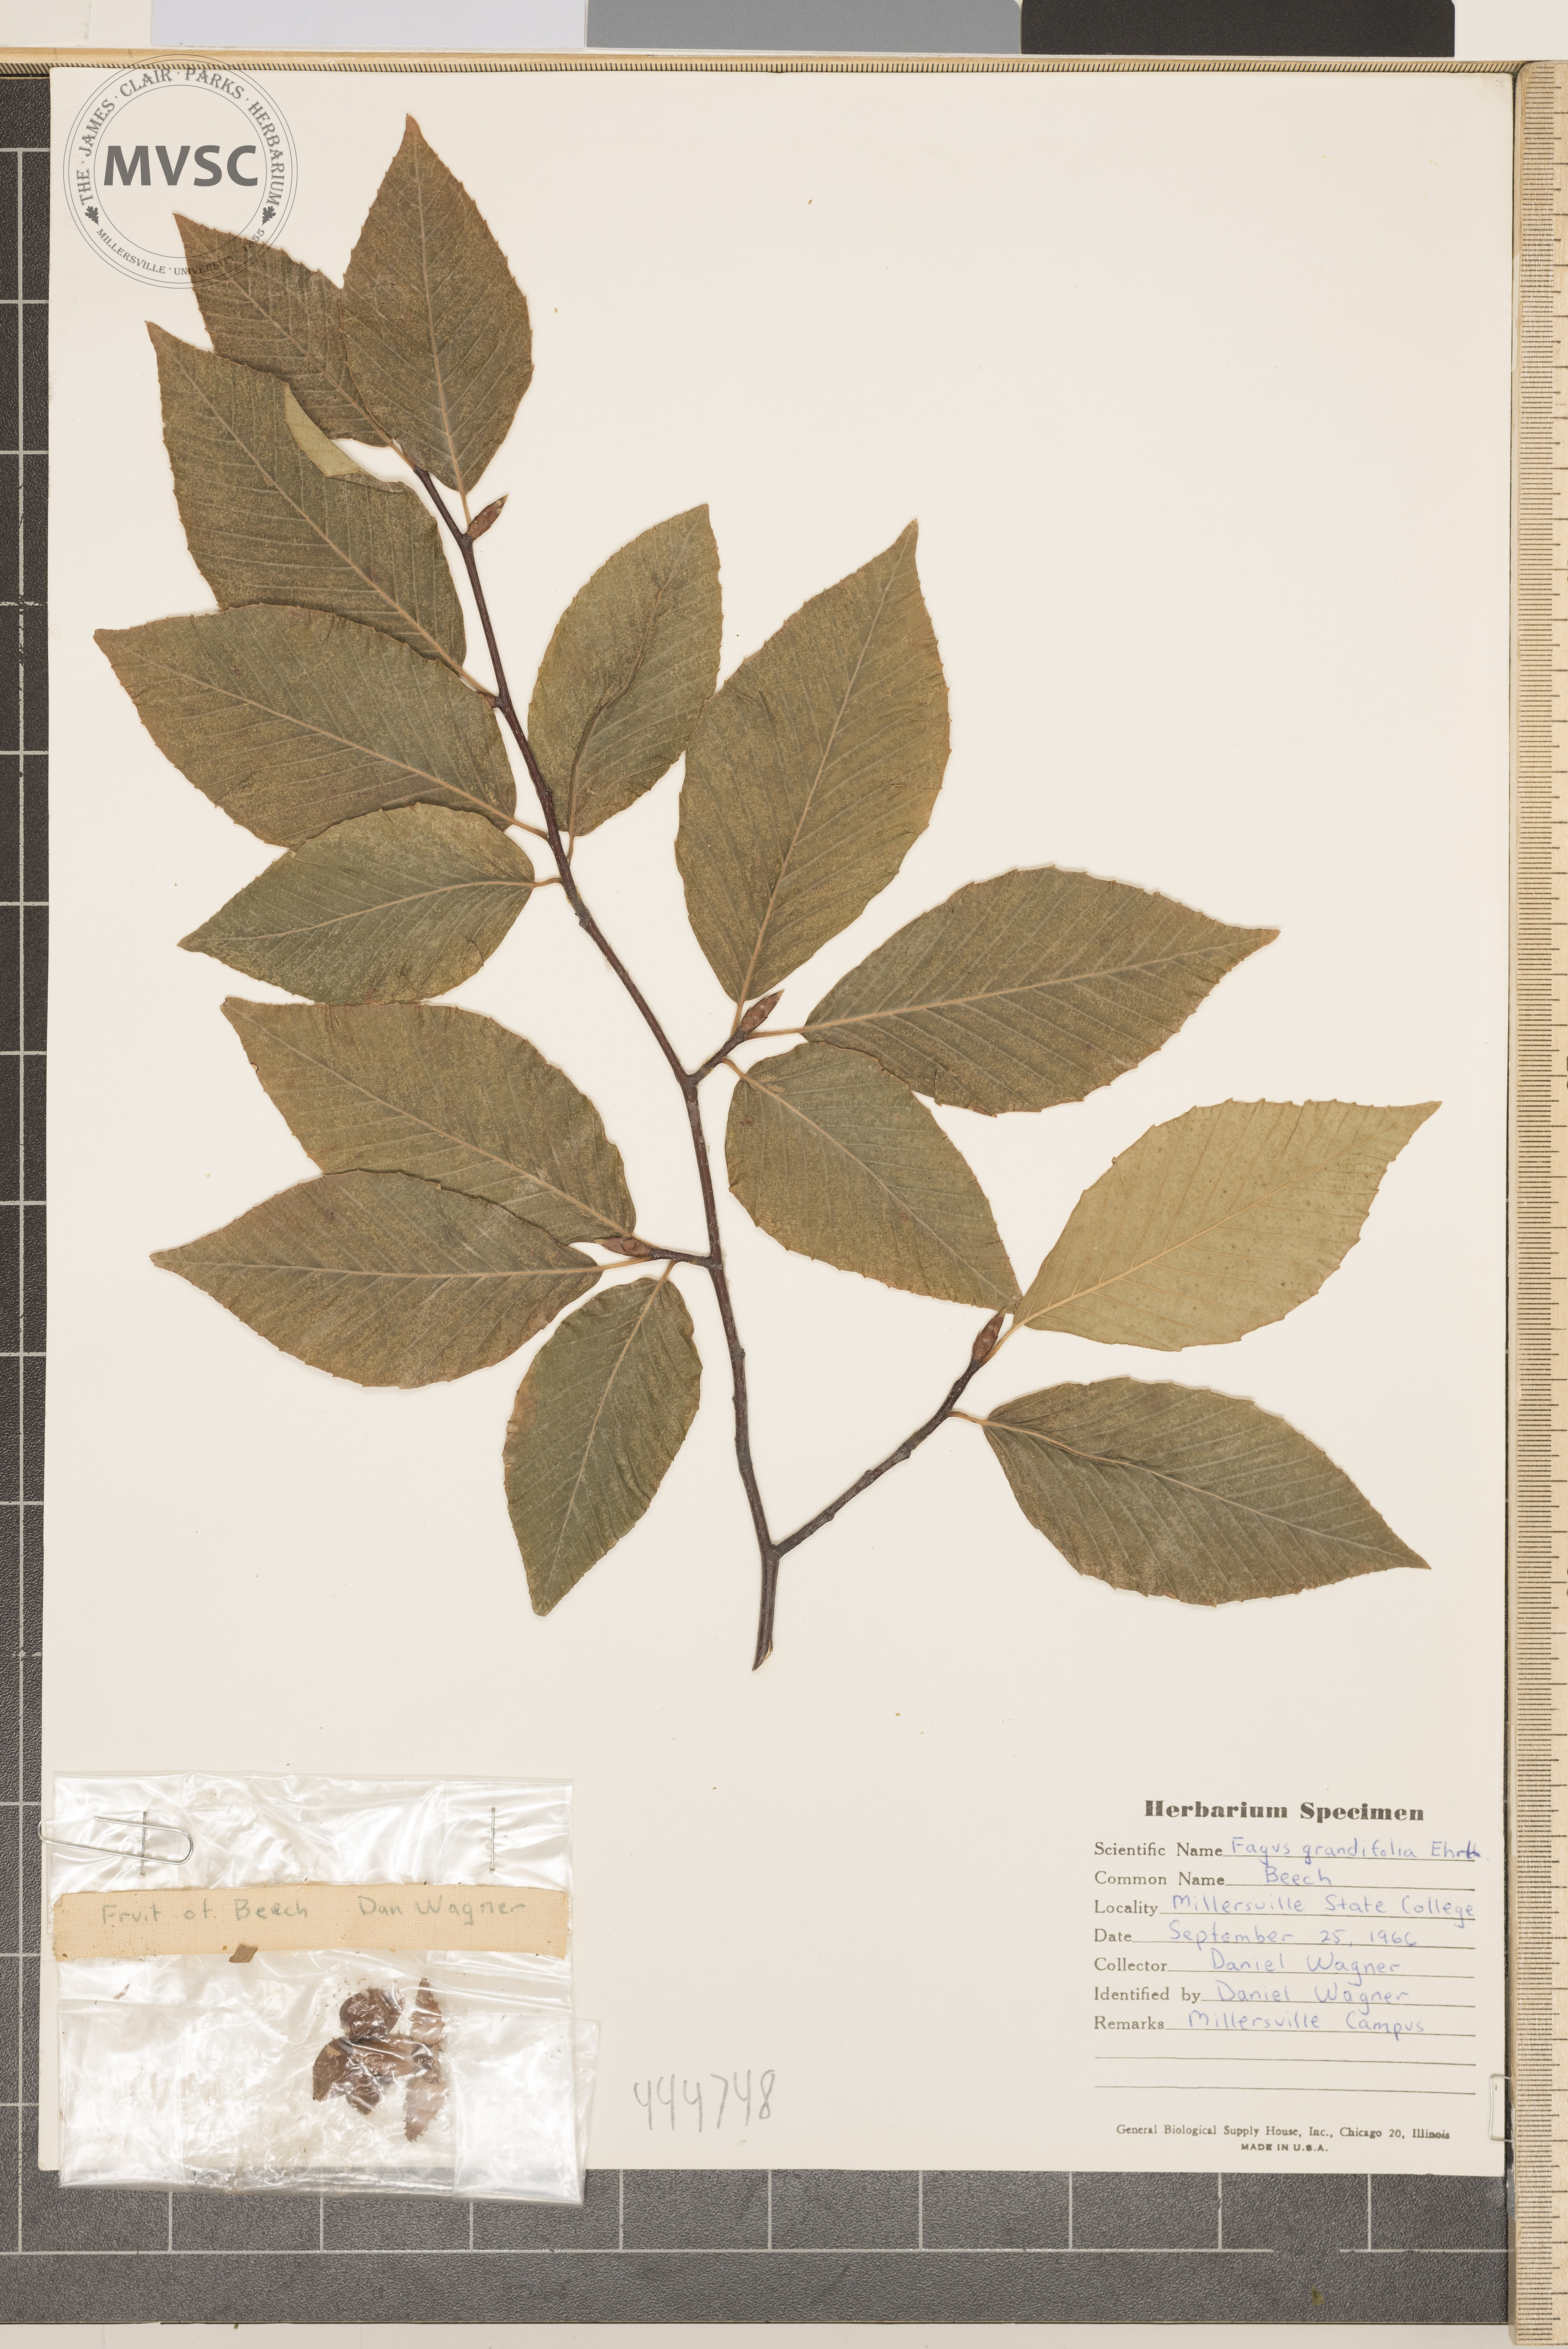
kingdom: Plantae
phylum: Tracheophyta
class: Magnoliopsida
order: Fagales
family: Fagaceae
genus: Fagus
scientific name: Fagus grandifolia
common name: Beech
